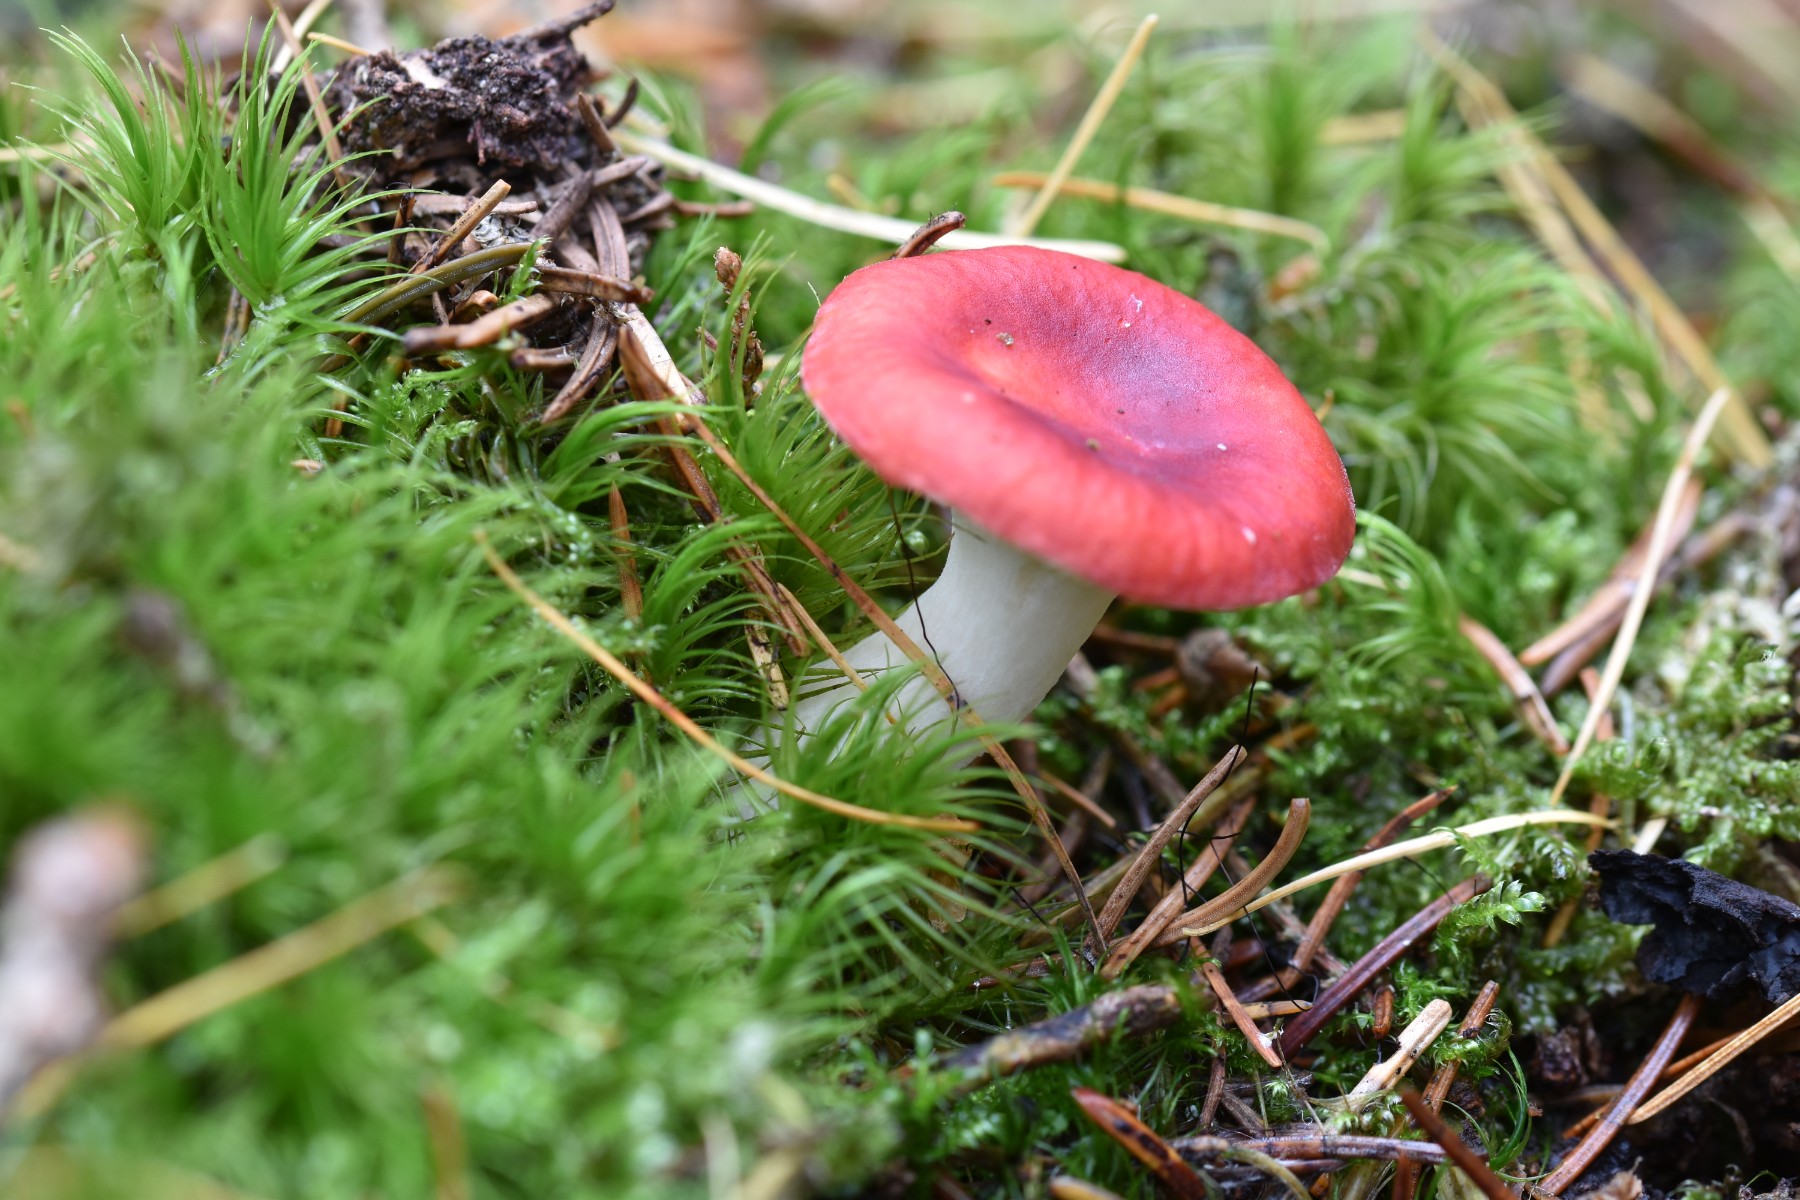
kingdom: Fungi
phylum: Basidiomycota
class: Agaricomycetes
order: Russulales
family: Russulaceae
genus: Russula
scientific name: Russula fragilis
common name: savbladet skørhat
